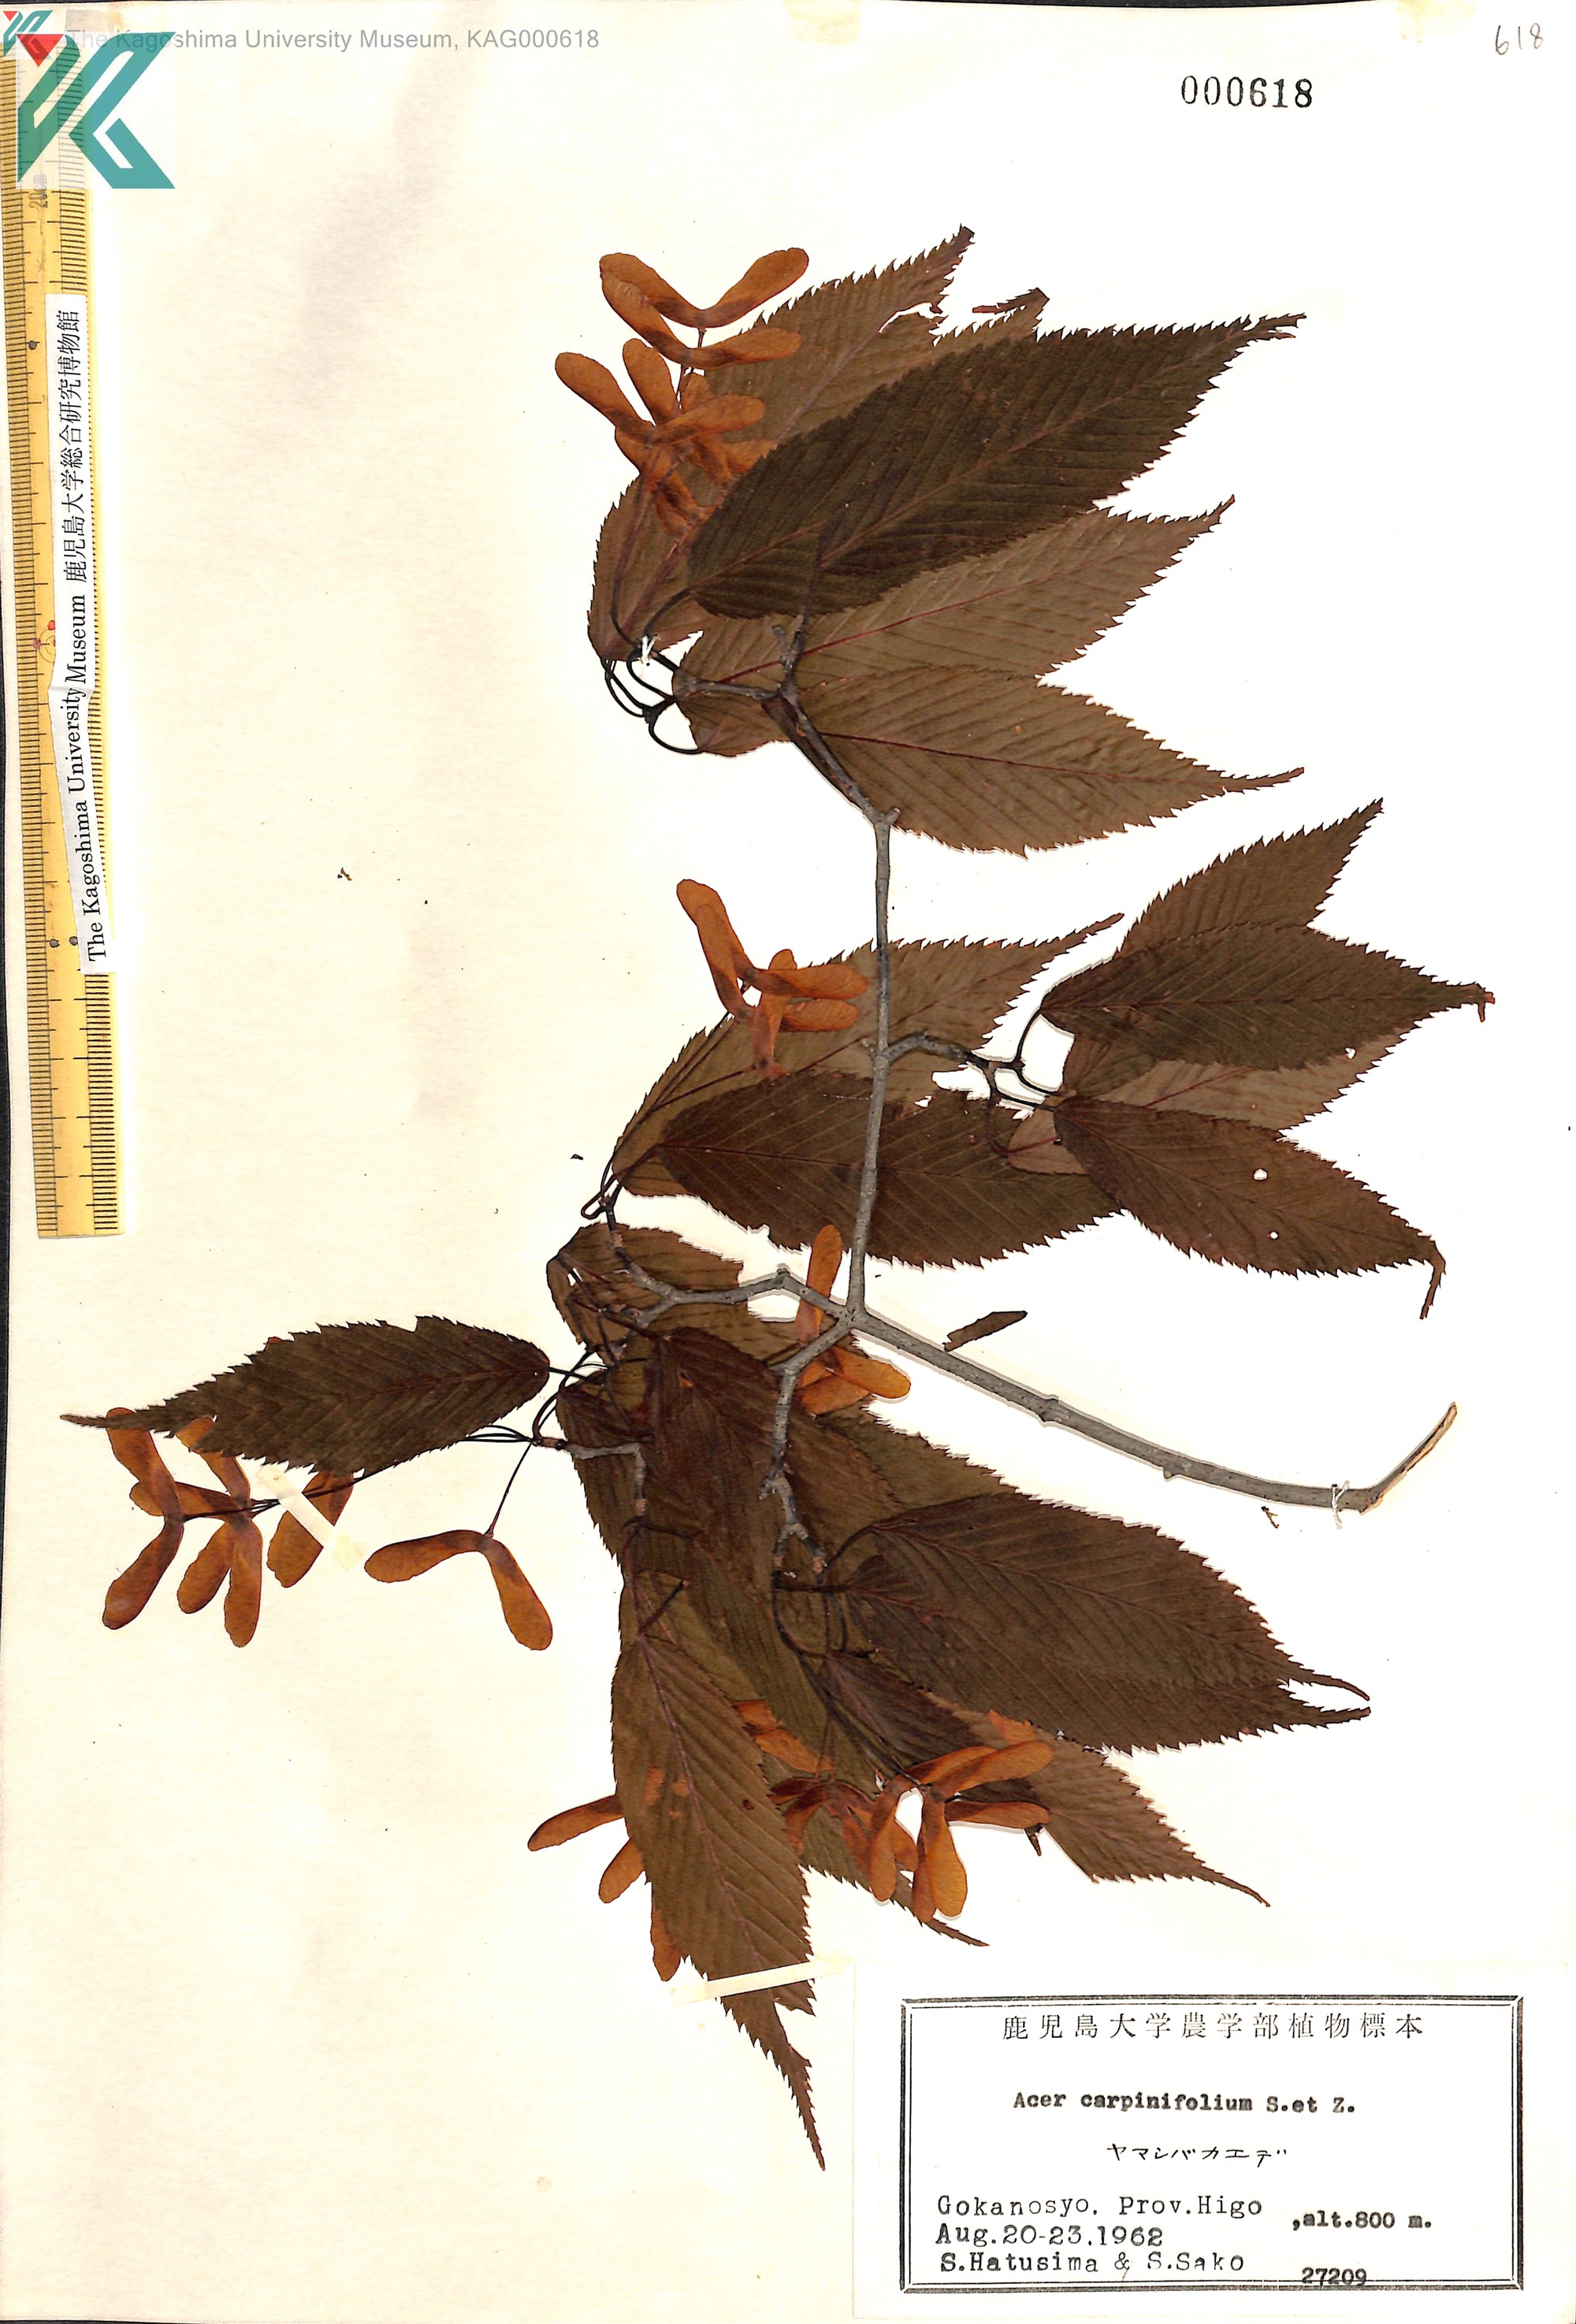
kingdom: Plantae
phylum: Tracheophyta
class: Magnoliopsida
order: Sapindales
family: Sapindaceae
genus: Acer
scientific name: Acer carpinifolium
